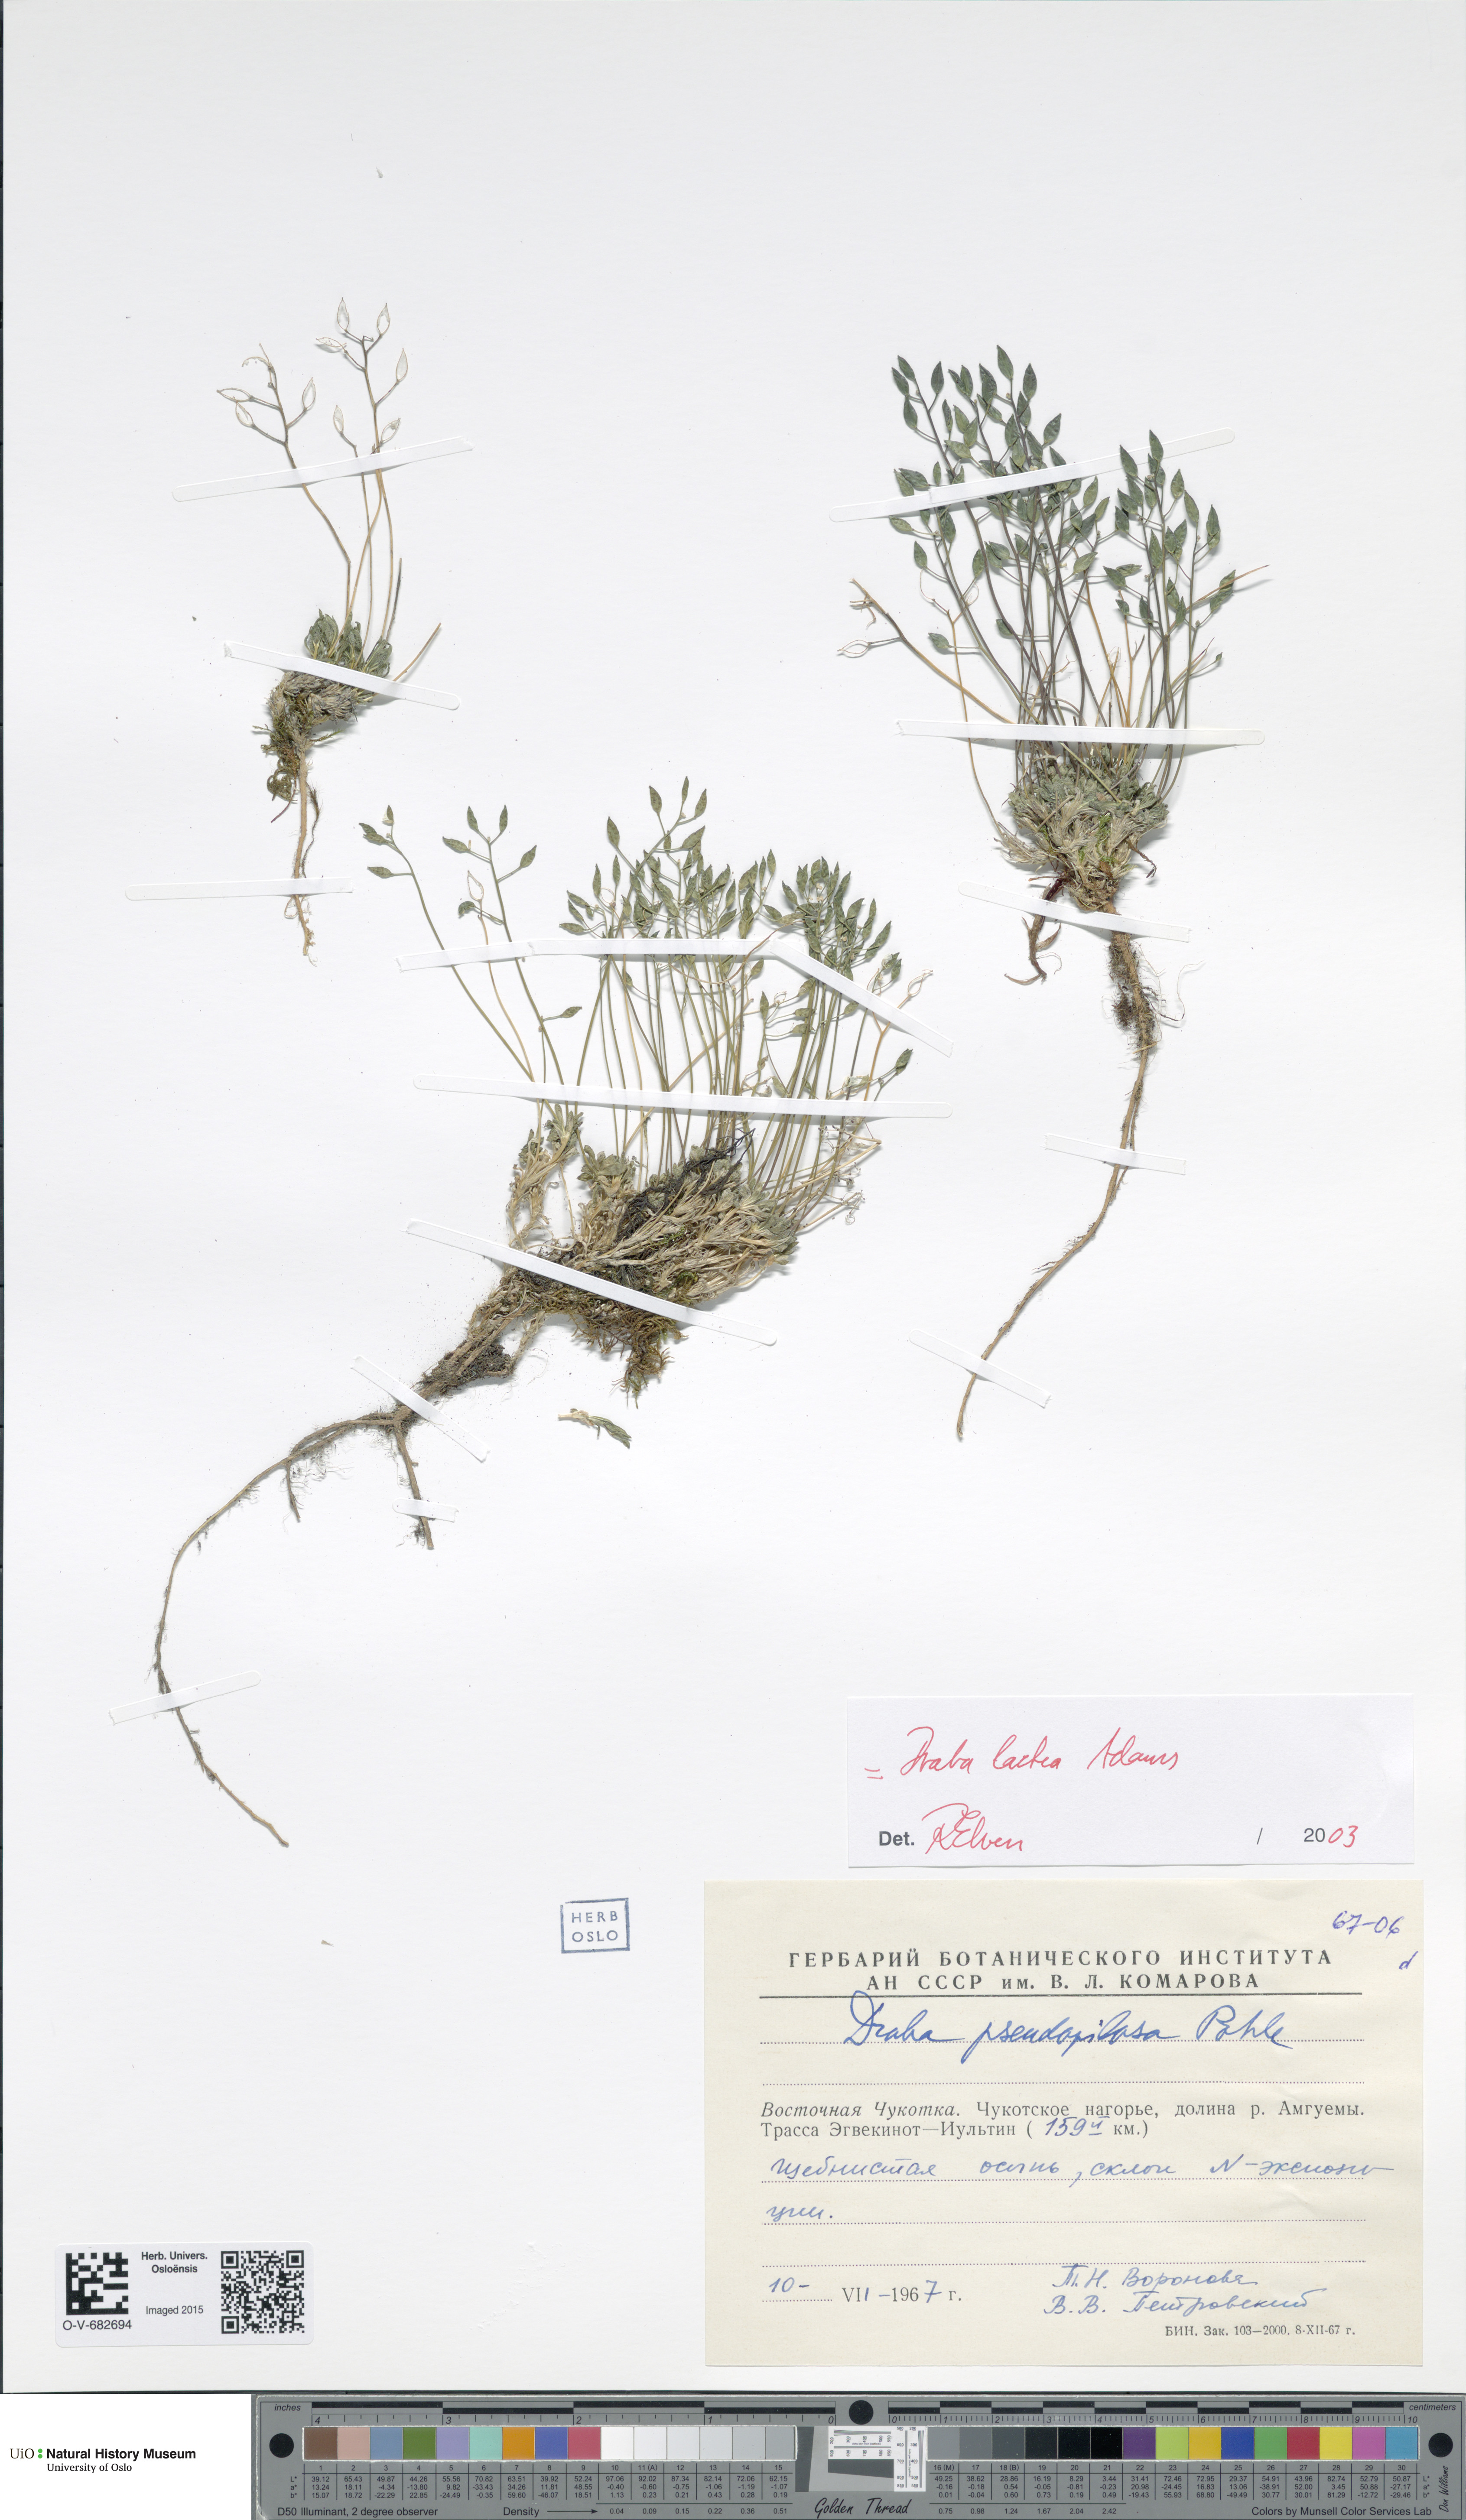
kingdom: Plantae
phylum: Tracheophyta
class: Magnoliopsida
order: Brassicales
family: Brassicaceae
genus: Draba
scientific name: Draba lactea
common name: Milky draba
